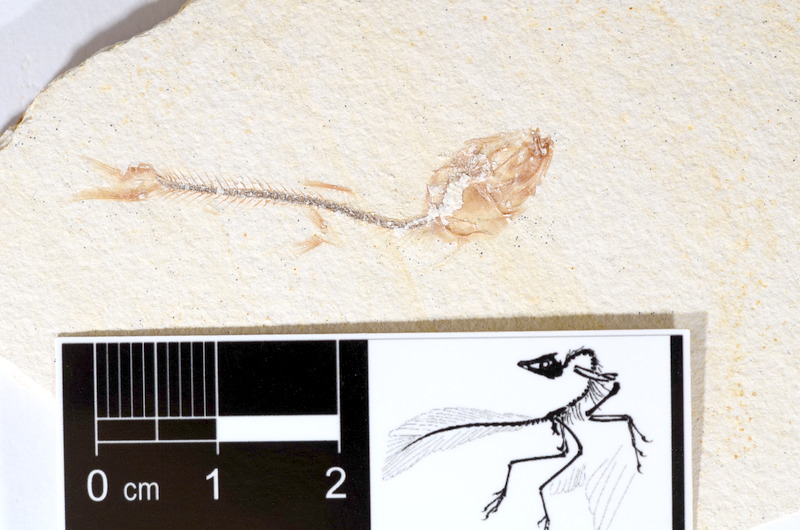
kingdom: Animalia
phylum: Chordata
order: Salmoniformes
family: Orthogonikleithridae
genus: Orthogonikleithrus
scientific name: Orthogonikleithrus hoelli
